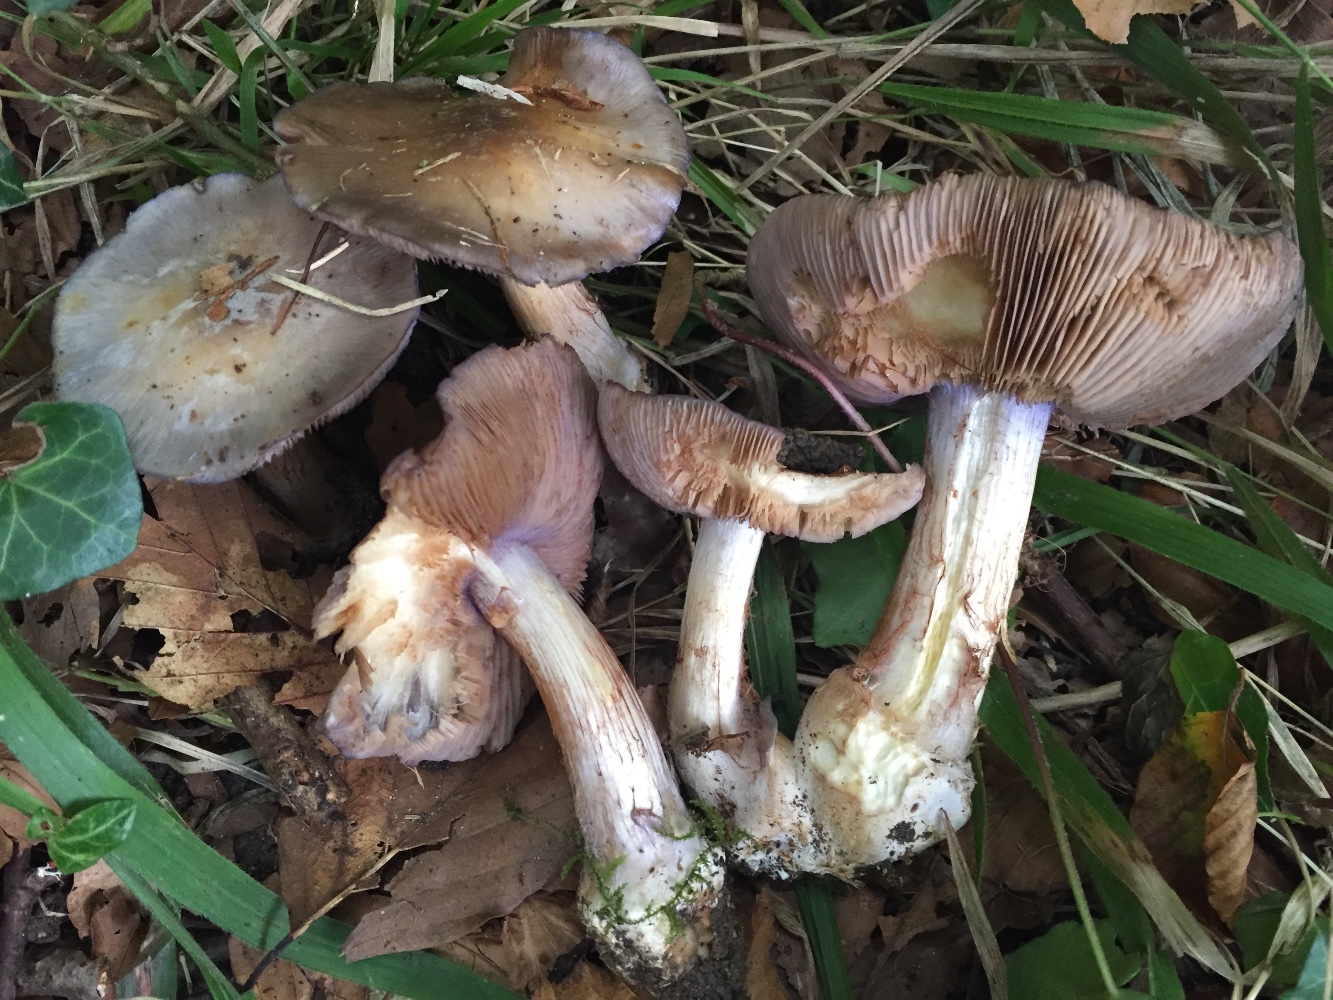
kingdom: Fungi
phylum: Basidiomycota
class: Agaricomycetes
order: Agaricales
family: Cortinariaceae
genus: Phlegmacium
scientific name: Phlegmacium viridocoeruleum
